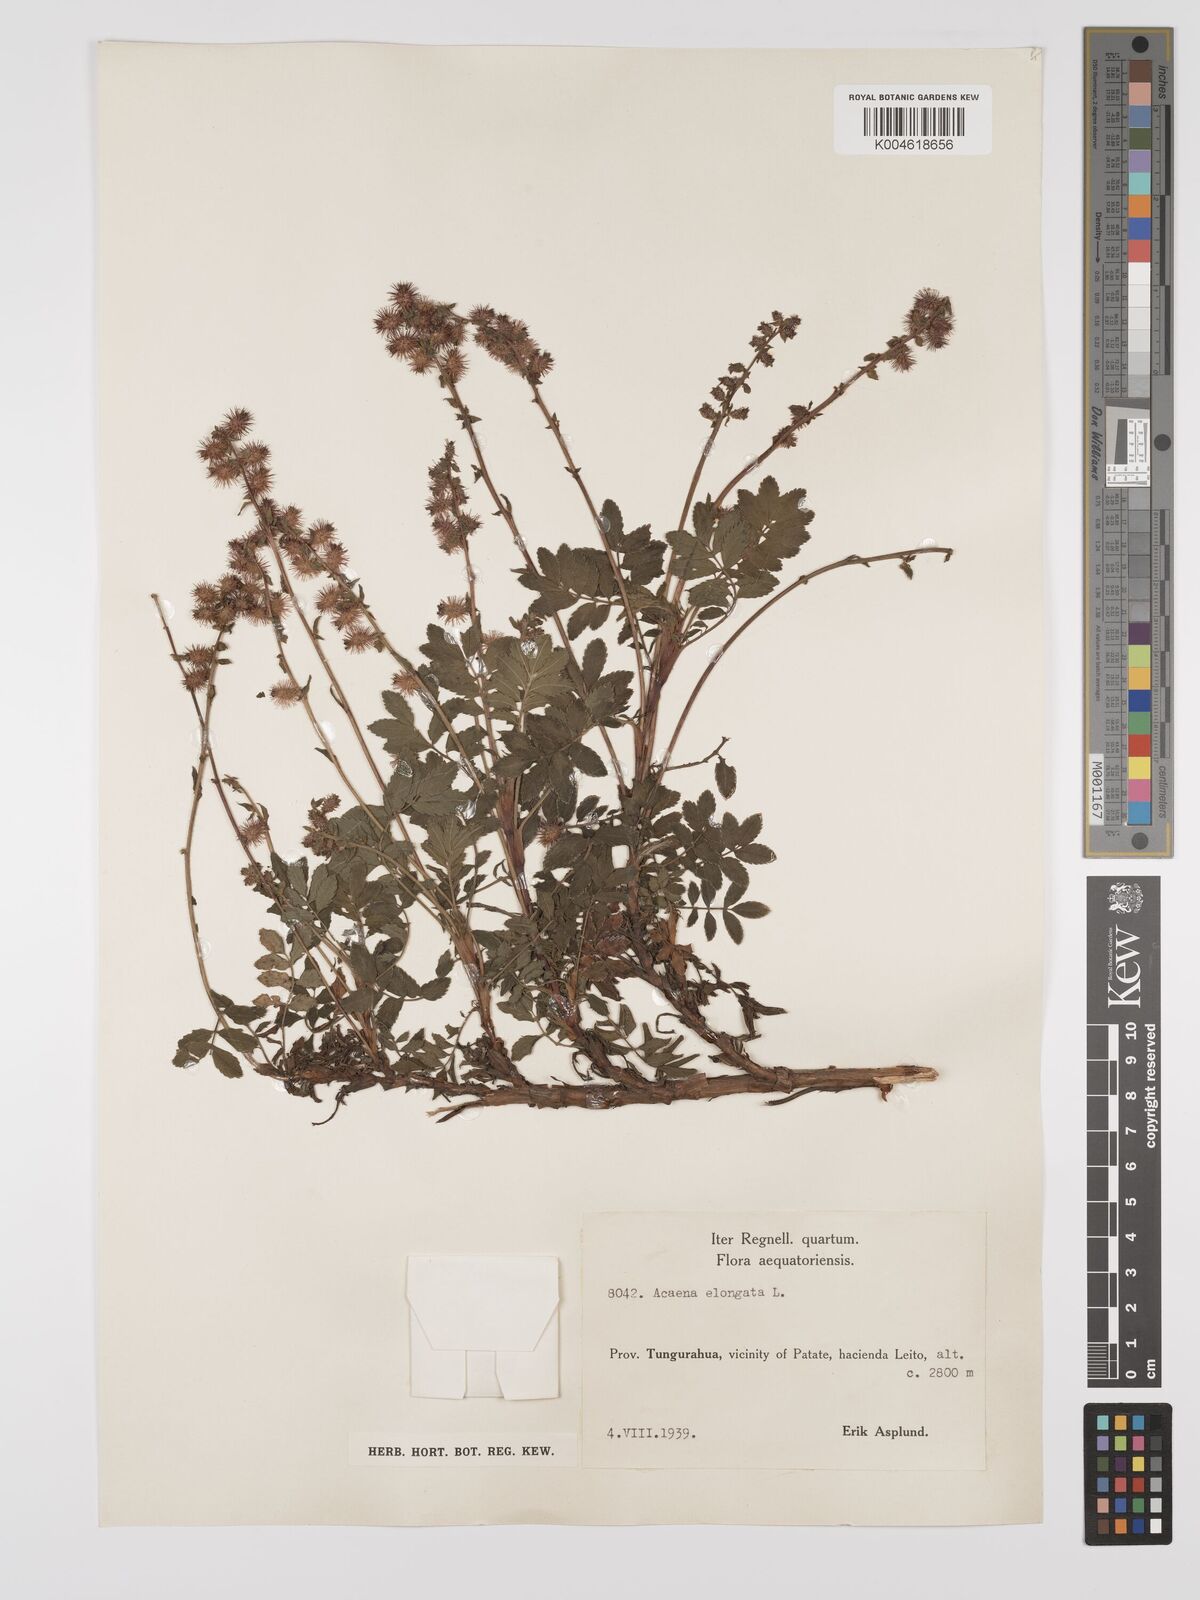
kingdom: Plantae
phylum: Tracheophyta
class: Magnoliopsida
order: Rosales
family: Rosaceae
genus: Acaena
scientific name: Acaena elongata
